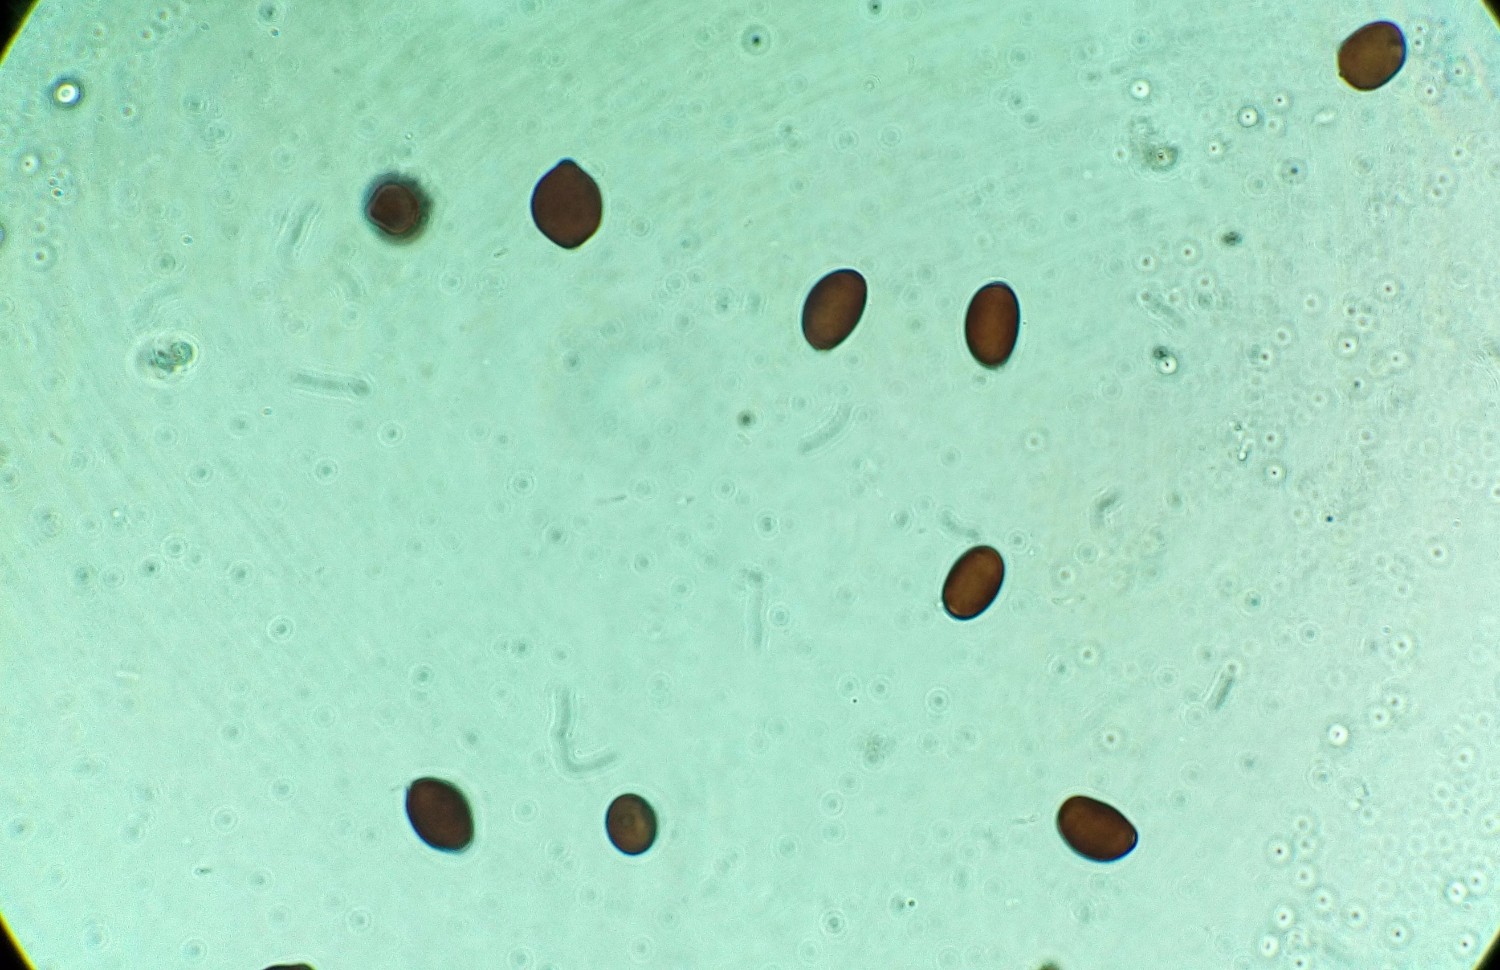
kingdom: Fungi
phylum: Basidiomycota
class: Agaricomycetes
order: Agaricales
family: Psathyrellaceae
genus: Coprinopsis
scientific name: Coprinopsis pseudonivea
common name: pudret blækhat
